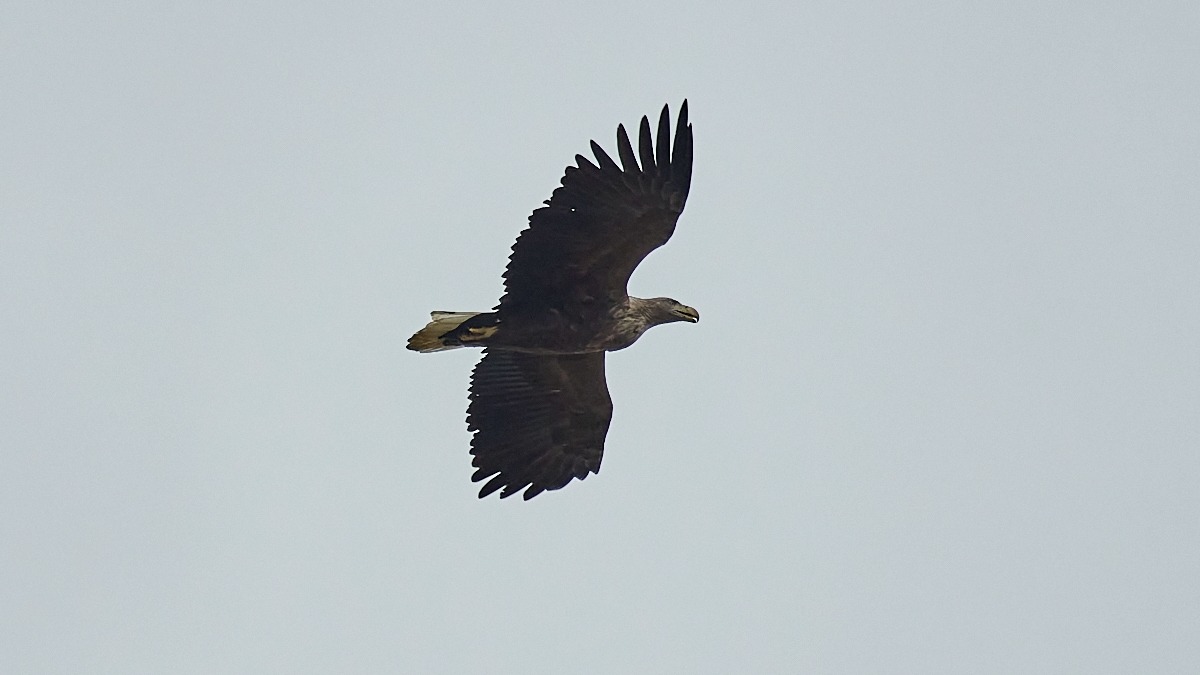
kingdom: Animalia
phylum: Chordata
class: Aves
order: Accipitriformes
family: Accipitridae
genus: Haliaeetus
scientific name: Haliaeetus albicilla
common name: Havørn
